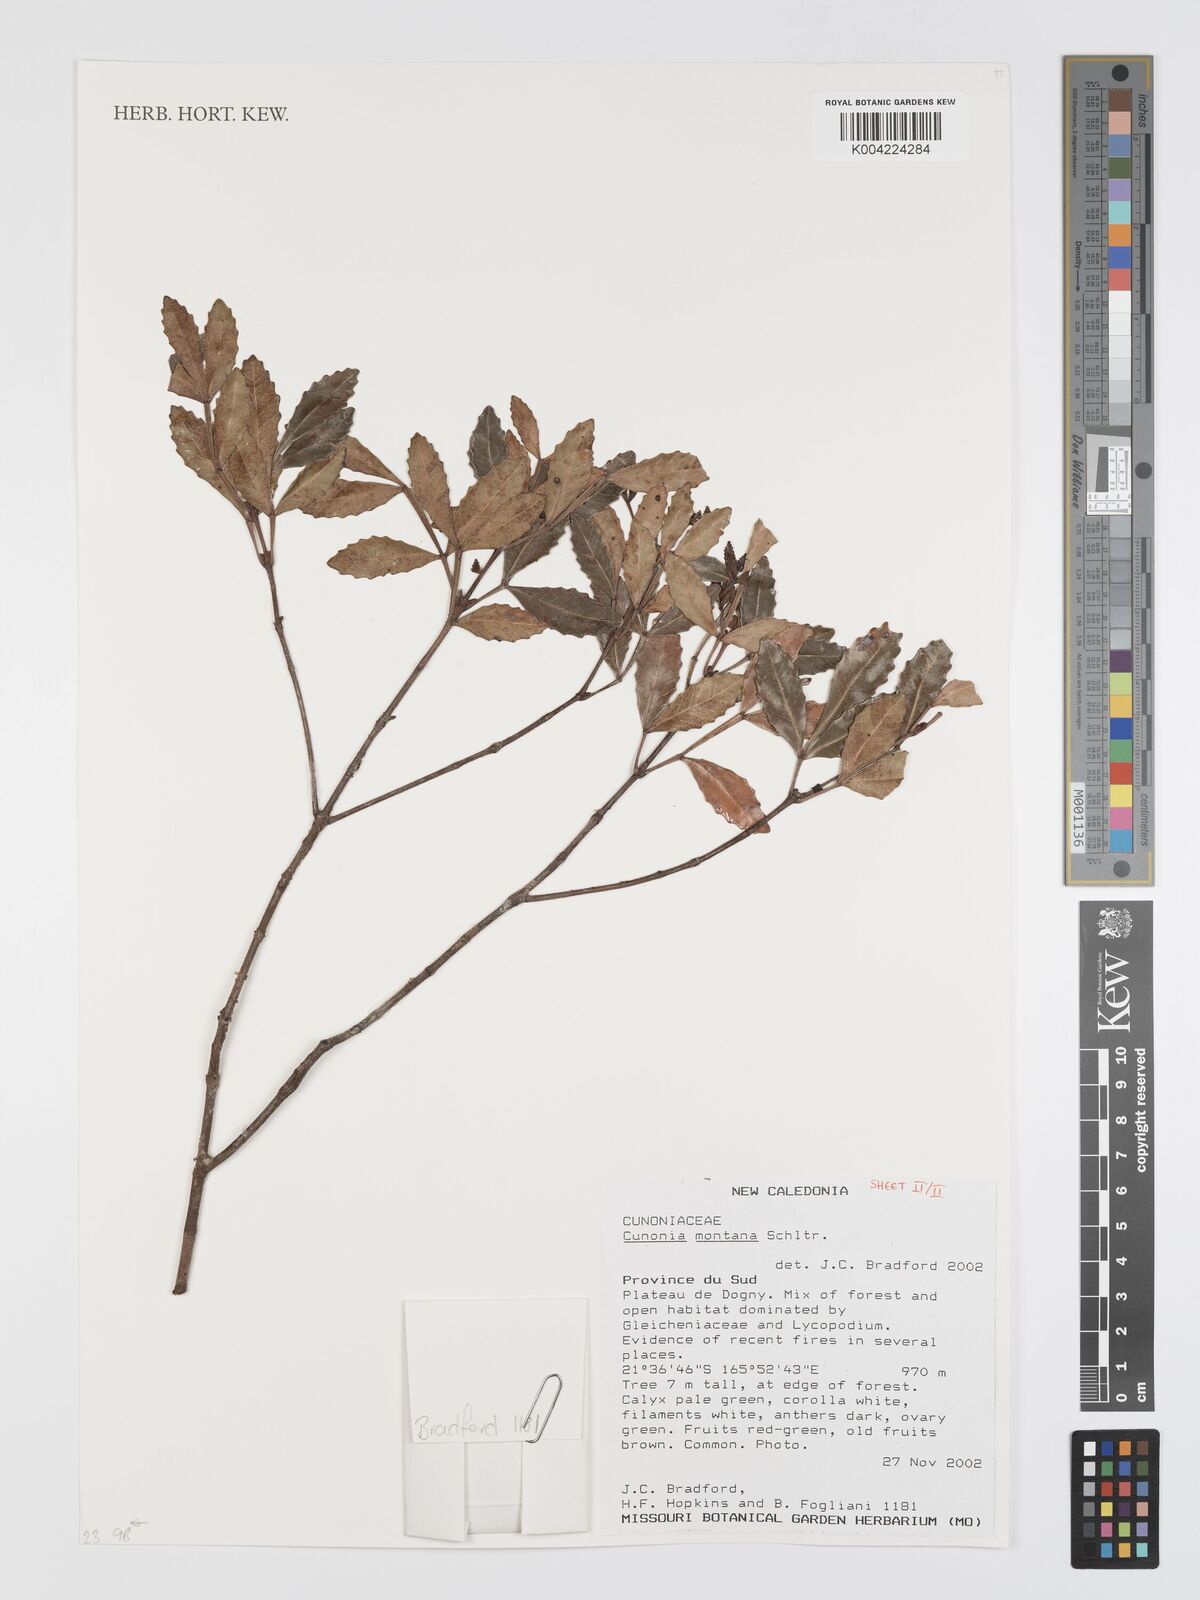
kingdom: Plantae
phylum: Tracheophyta
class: Magnoliopsida
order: Oxalidales
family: Cunoniaceae
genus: Cunonia
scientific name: Cunonia montana
